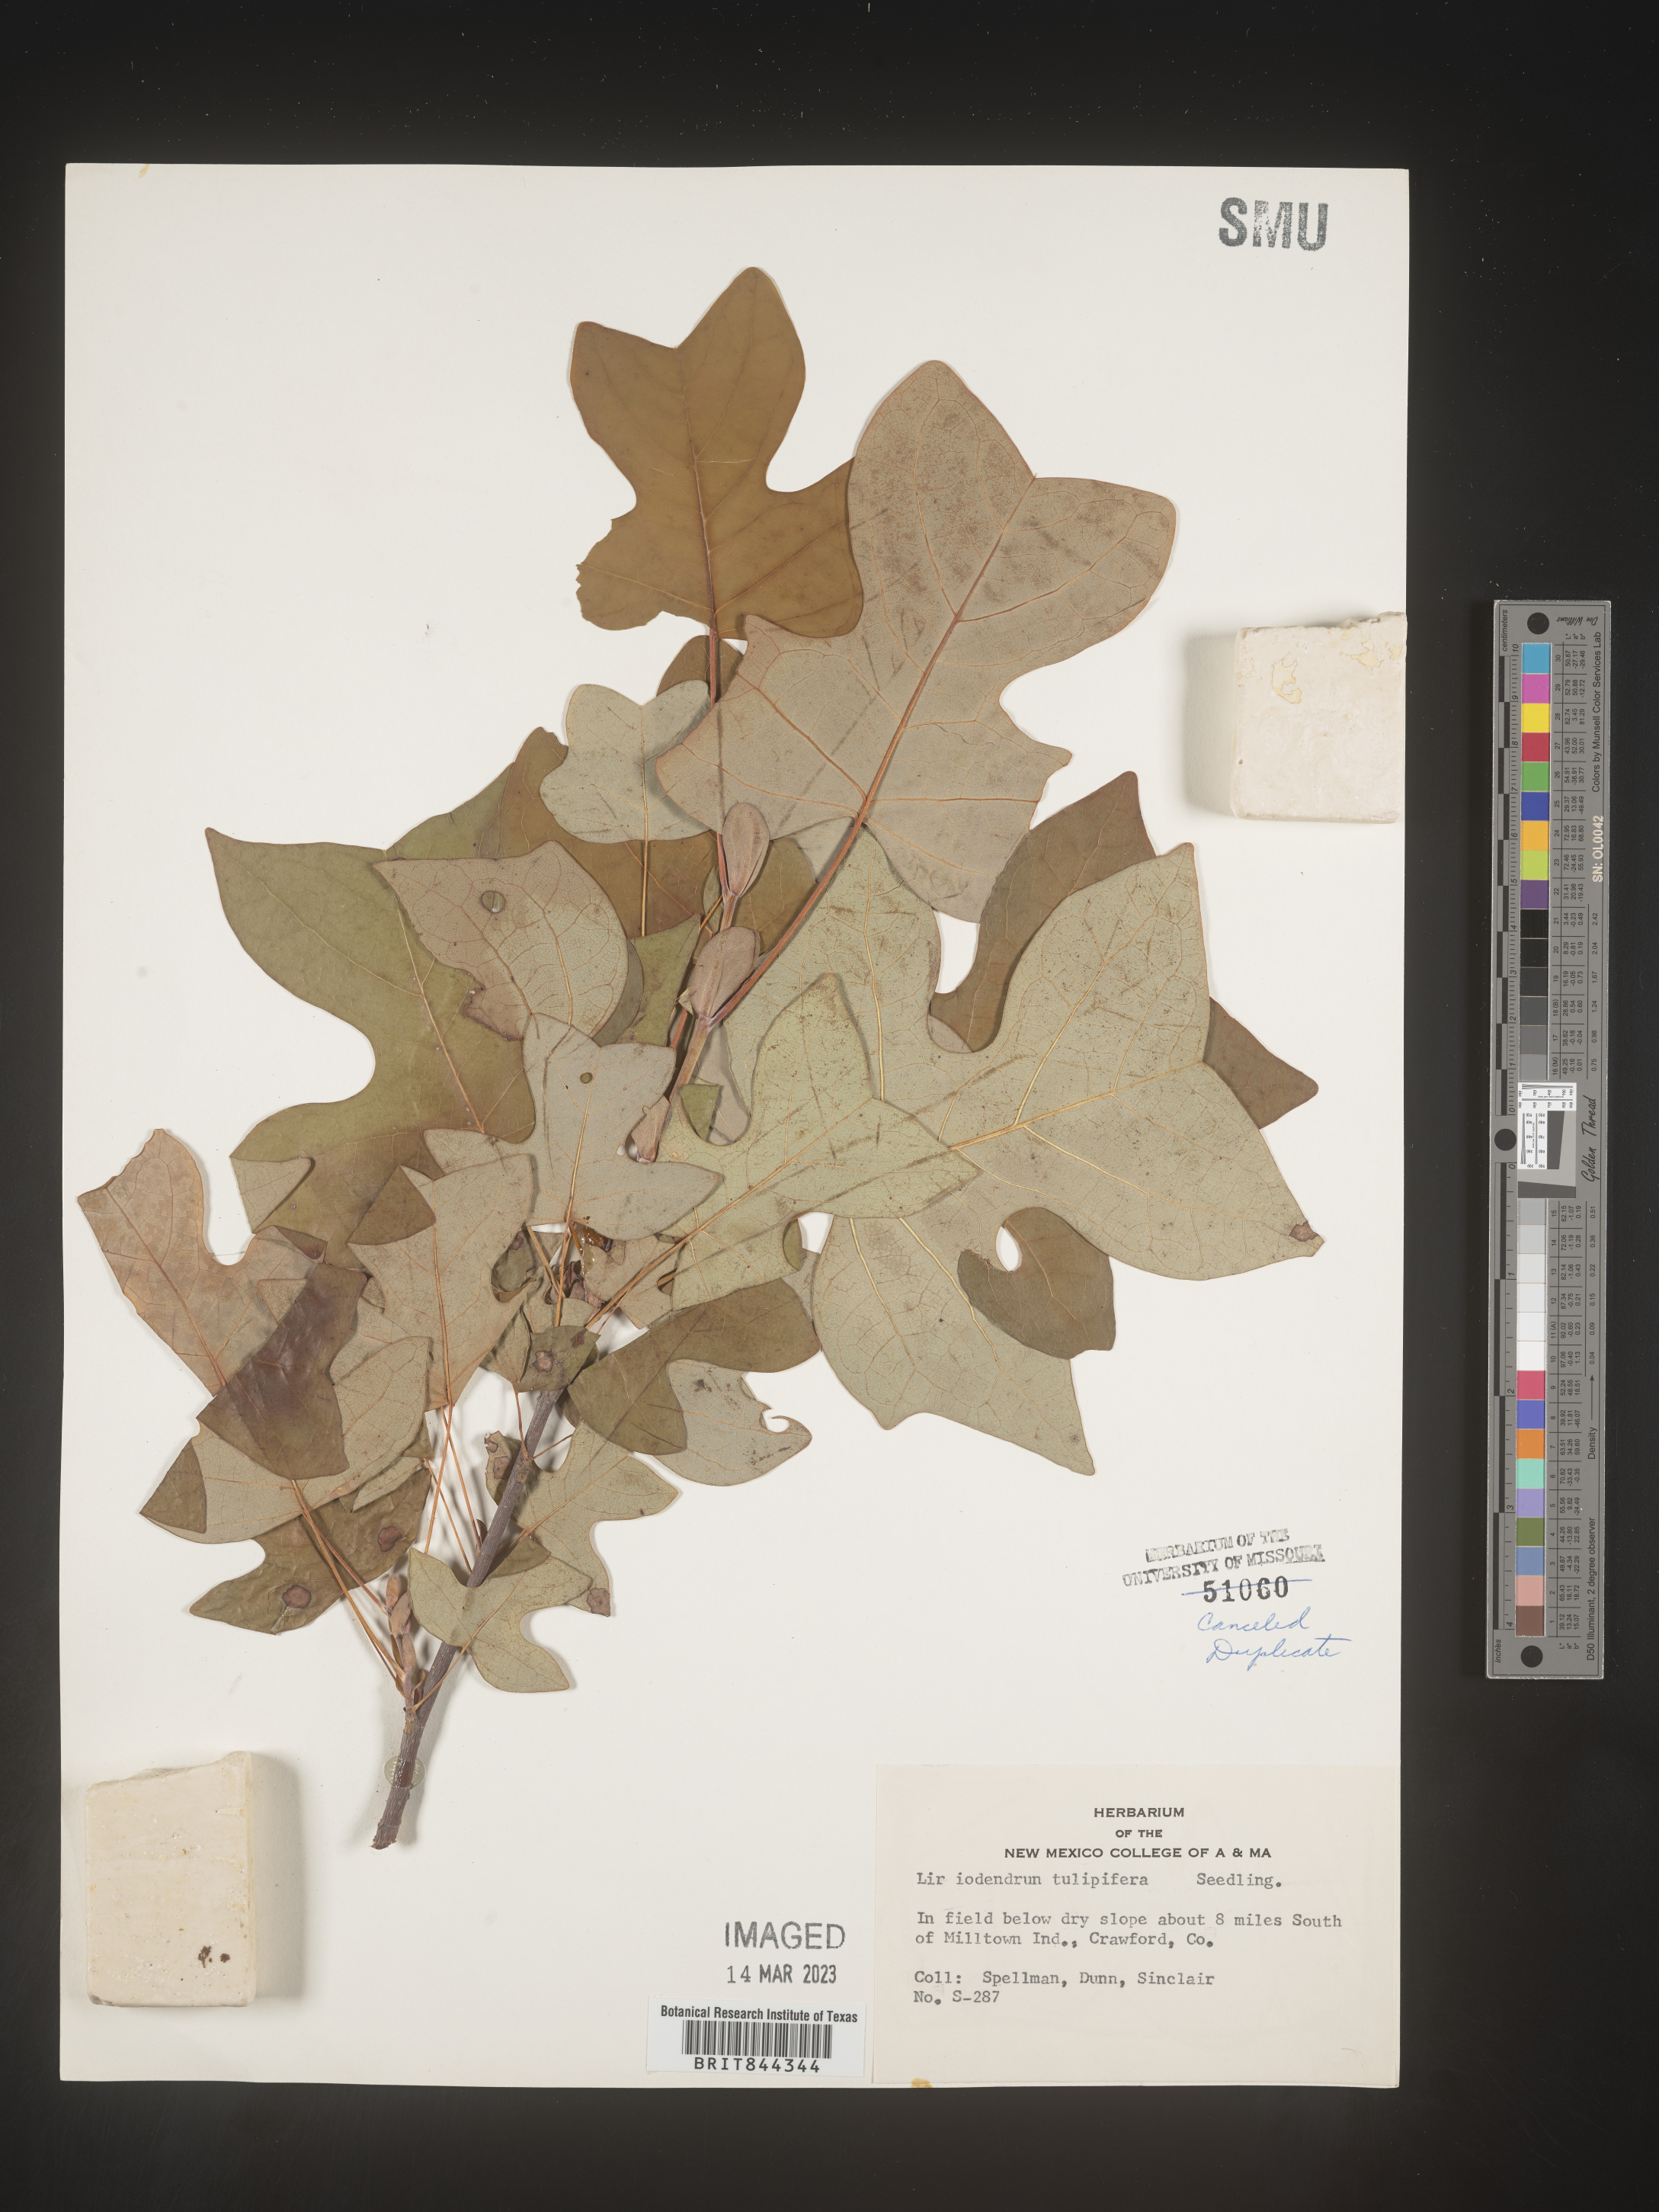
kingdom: Plantae
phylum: Tracheophyta
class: Magnoliopsida
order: Magnoliales
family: Magnoliaceae
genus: Liriodendron
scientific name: Liriodendron tulipifera
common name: Tulip tree
